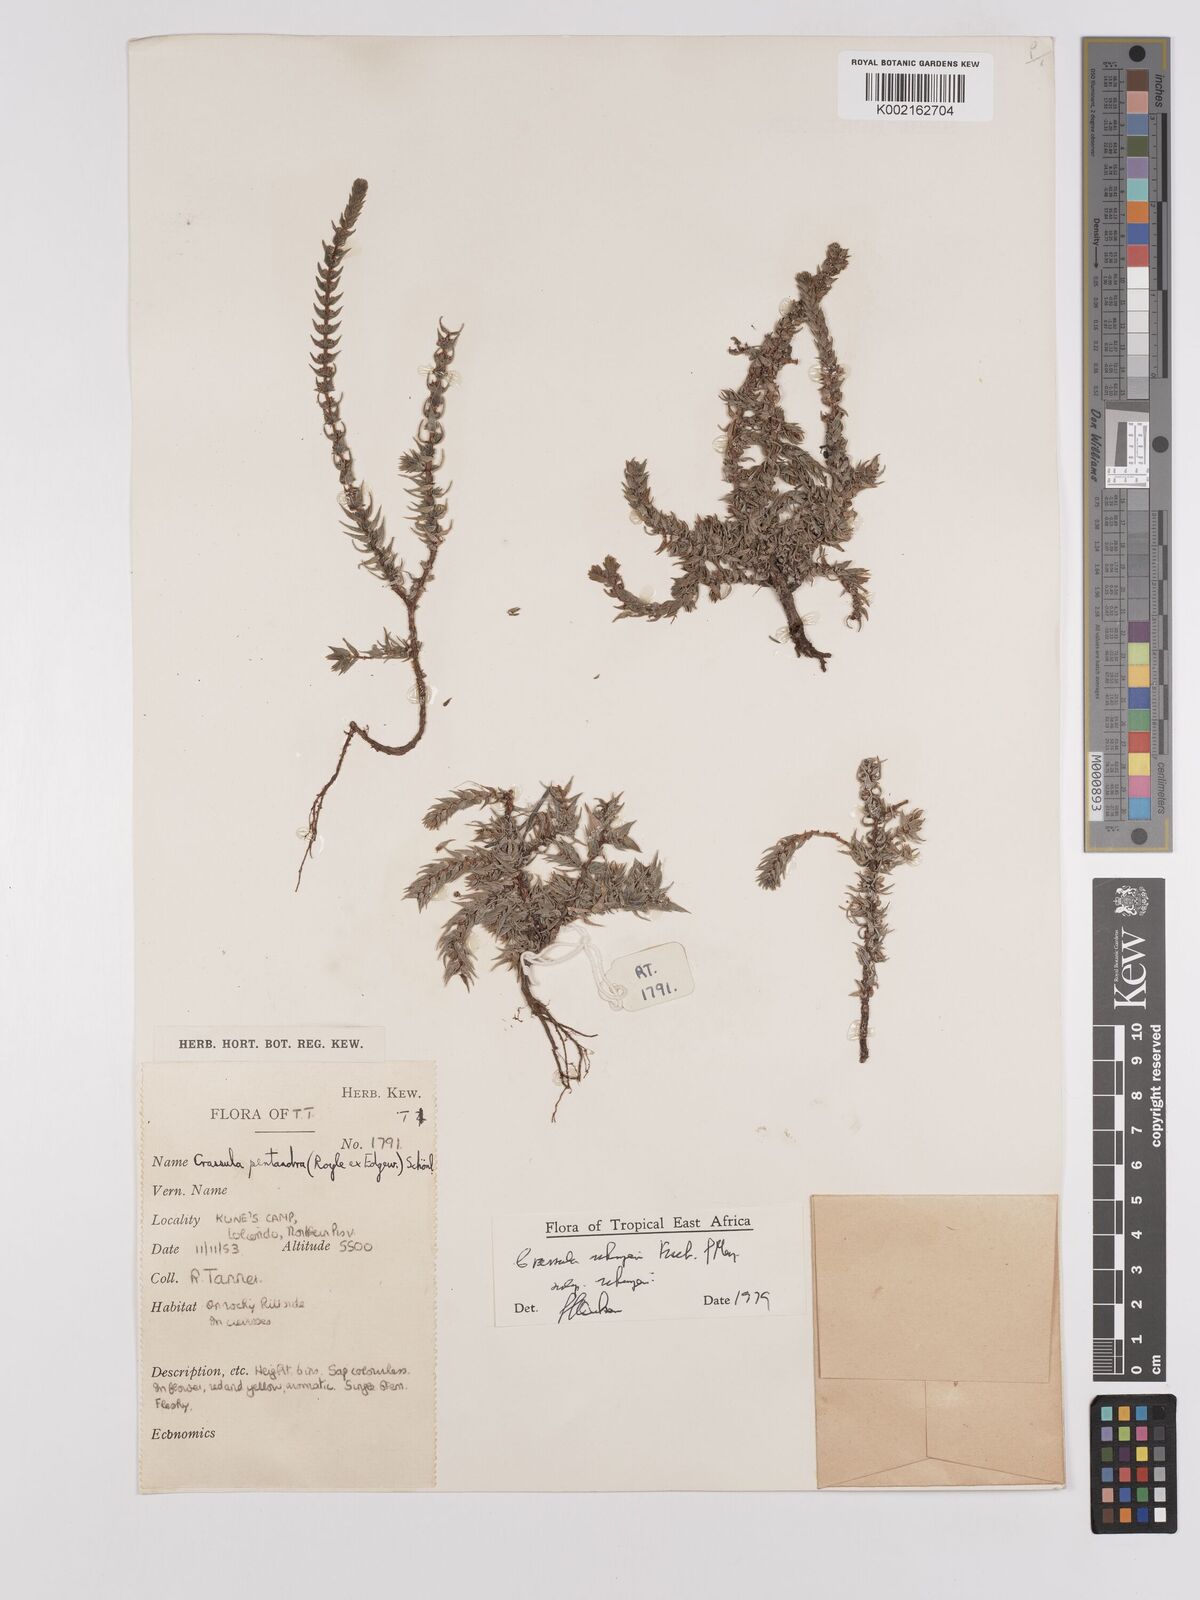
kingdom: Plantae
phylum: Tracheophyta
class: Magnoliopsida
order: Saxifragales
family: Crassulaceae
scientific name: Crassulaceae
